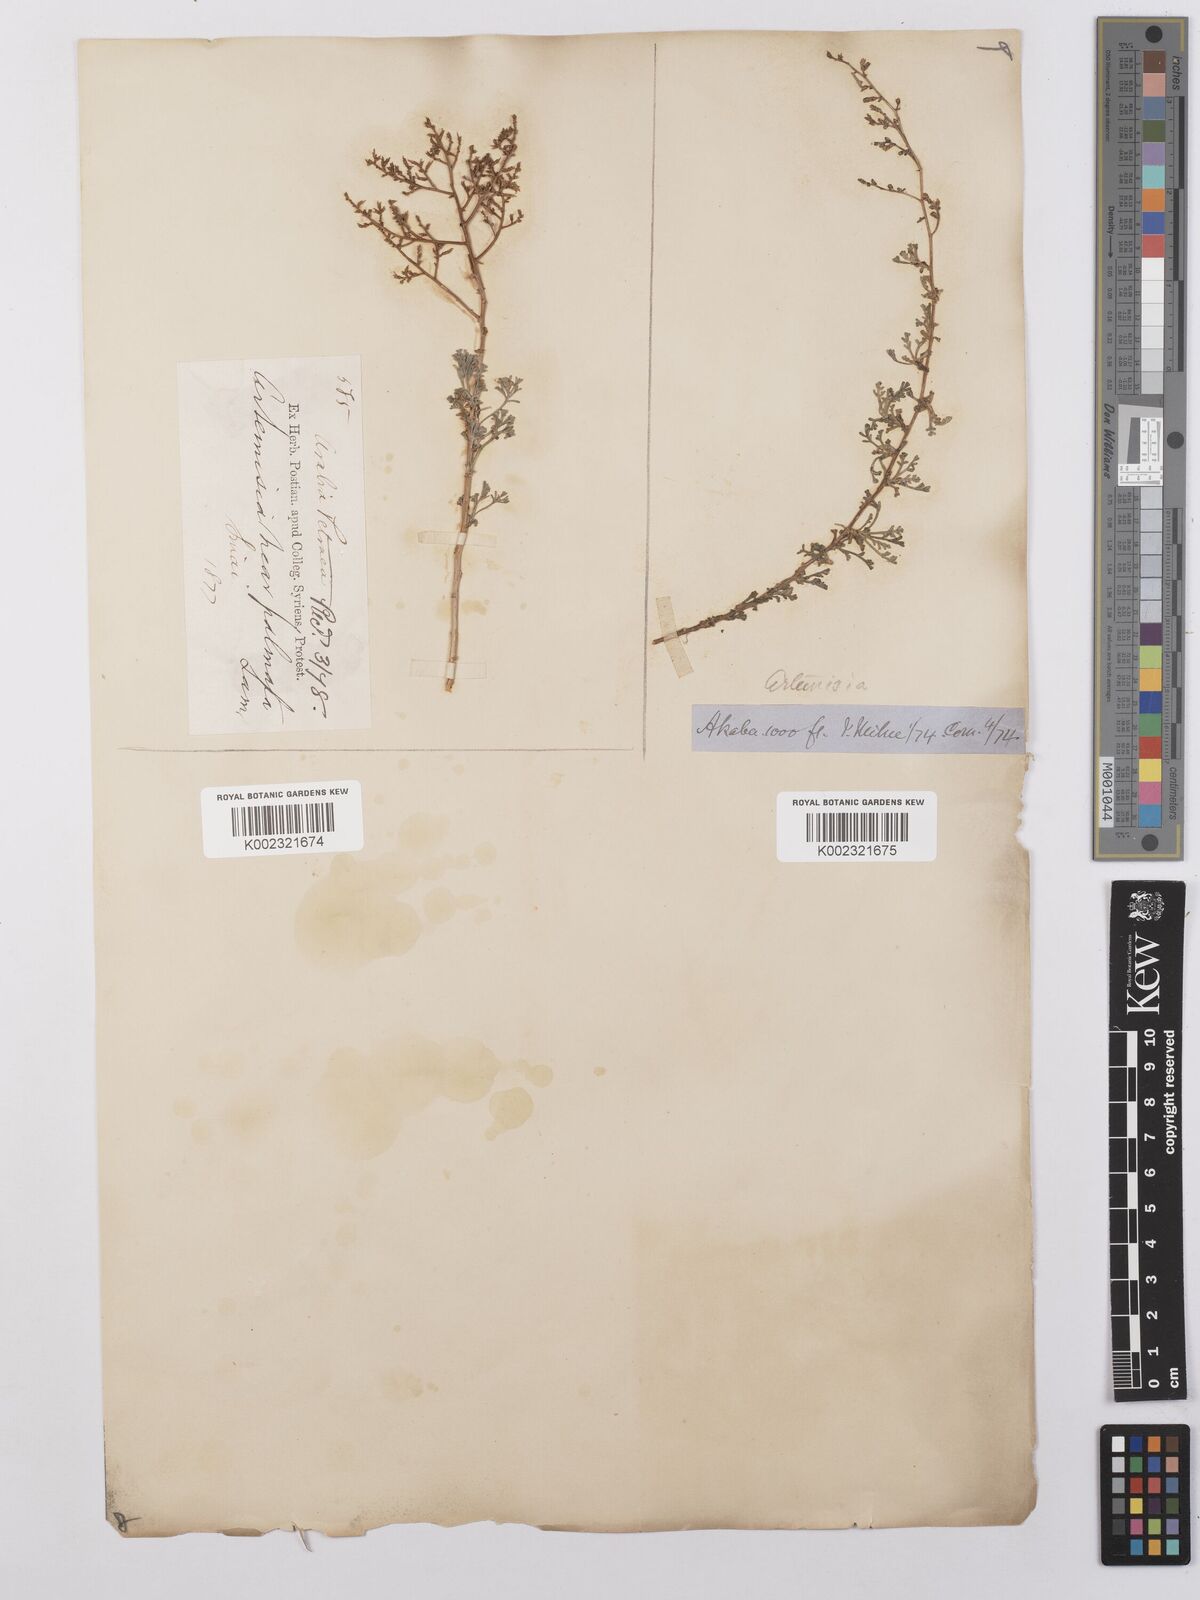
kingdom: Plantae
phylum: Tracheophyta
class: Magnoliopsida
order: Asterales
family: Asteraceae
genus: Artemisia
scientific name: Artemisia herba-alba
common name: White wormwood
